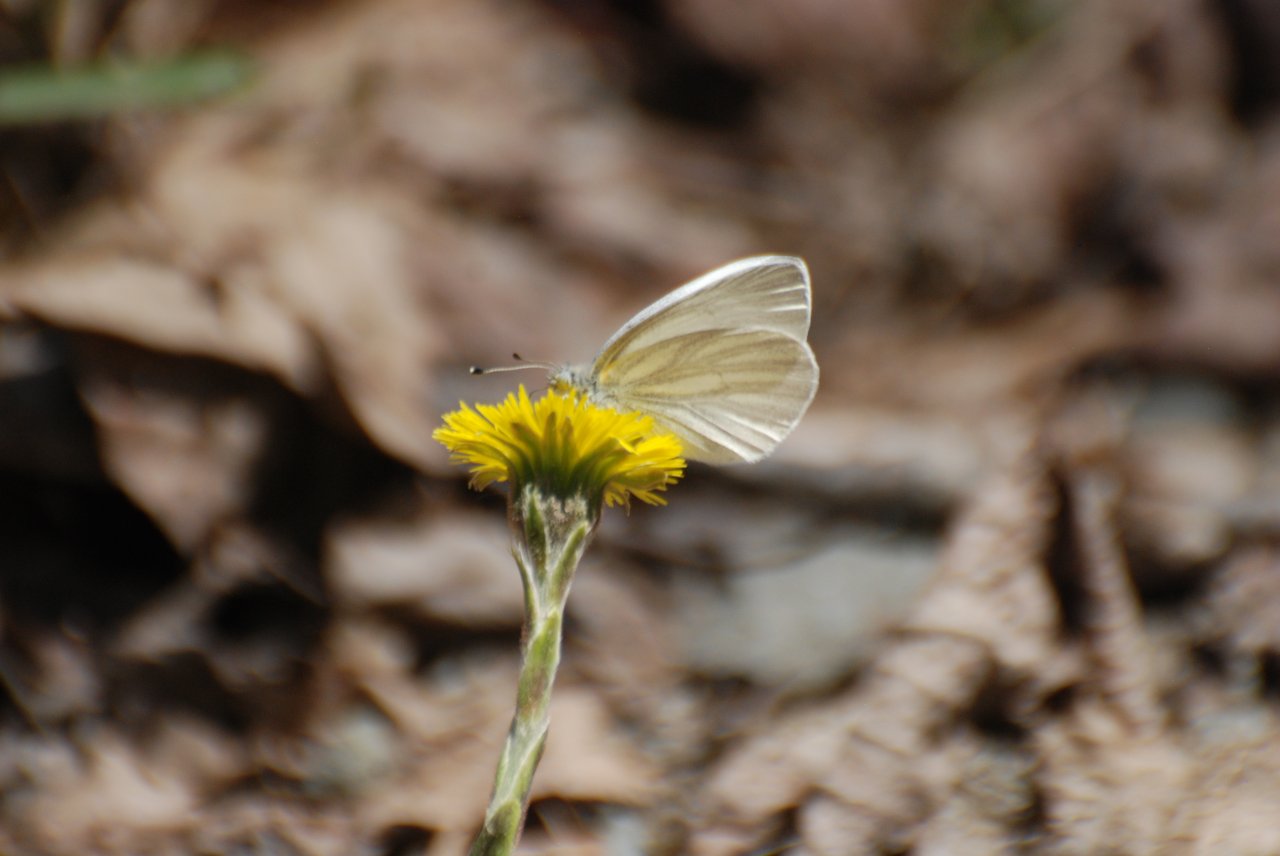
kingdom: Animalia
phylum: Arthropoda
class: Insecta
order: Lepidoptera
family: Pieridae
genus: Pieris
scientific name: Pieris virginiensis
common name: West Virginia White
